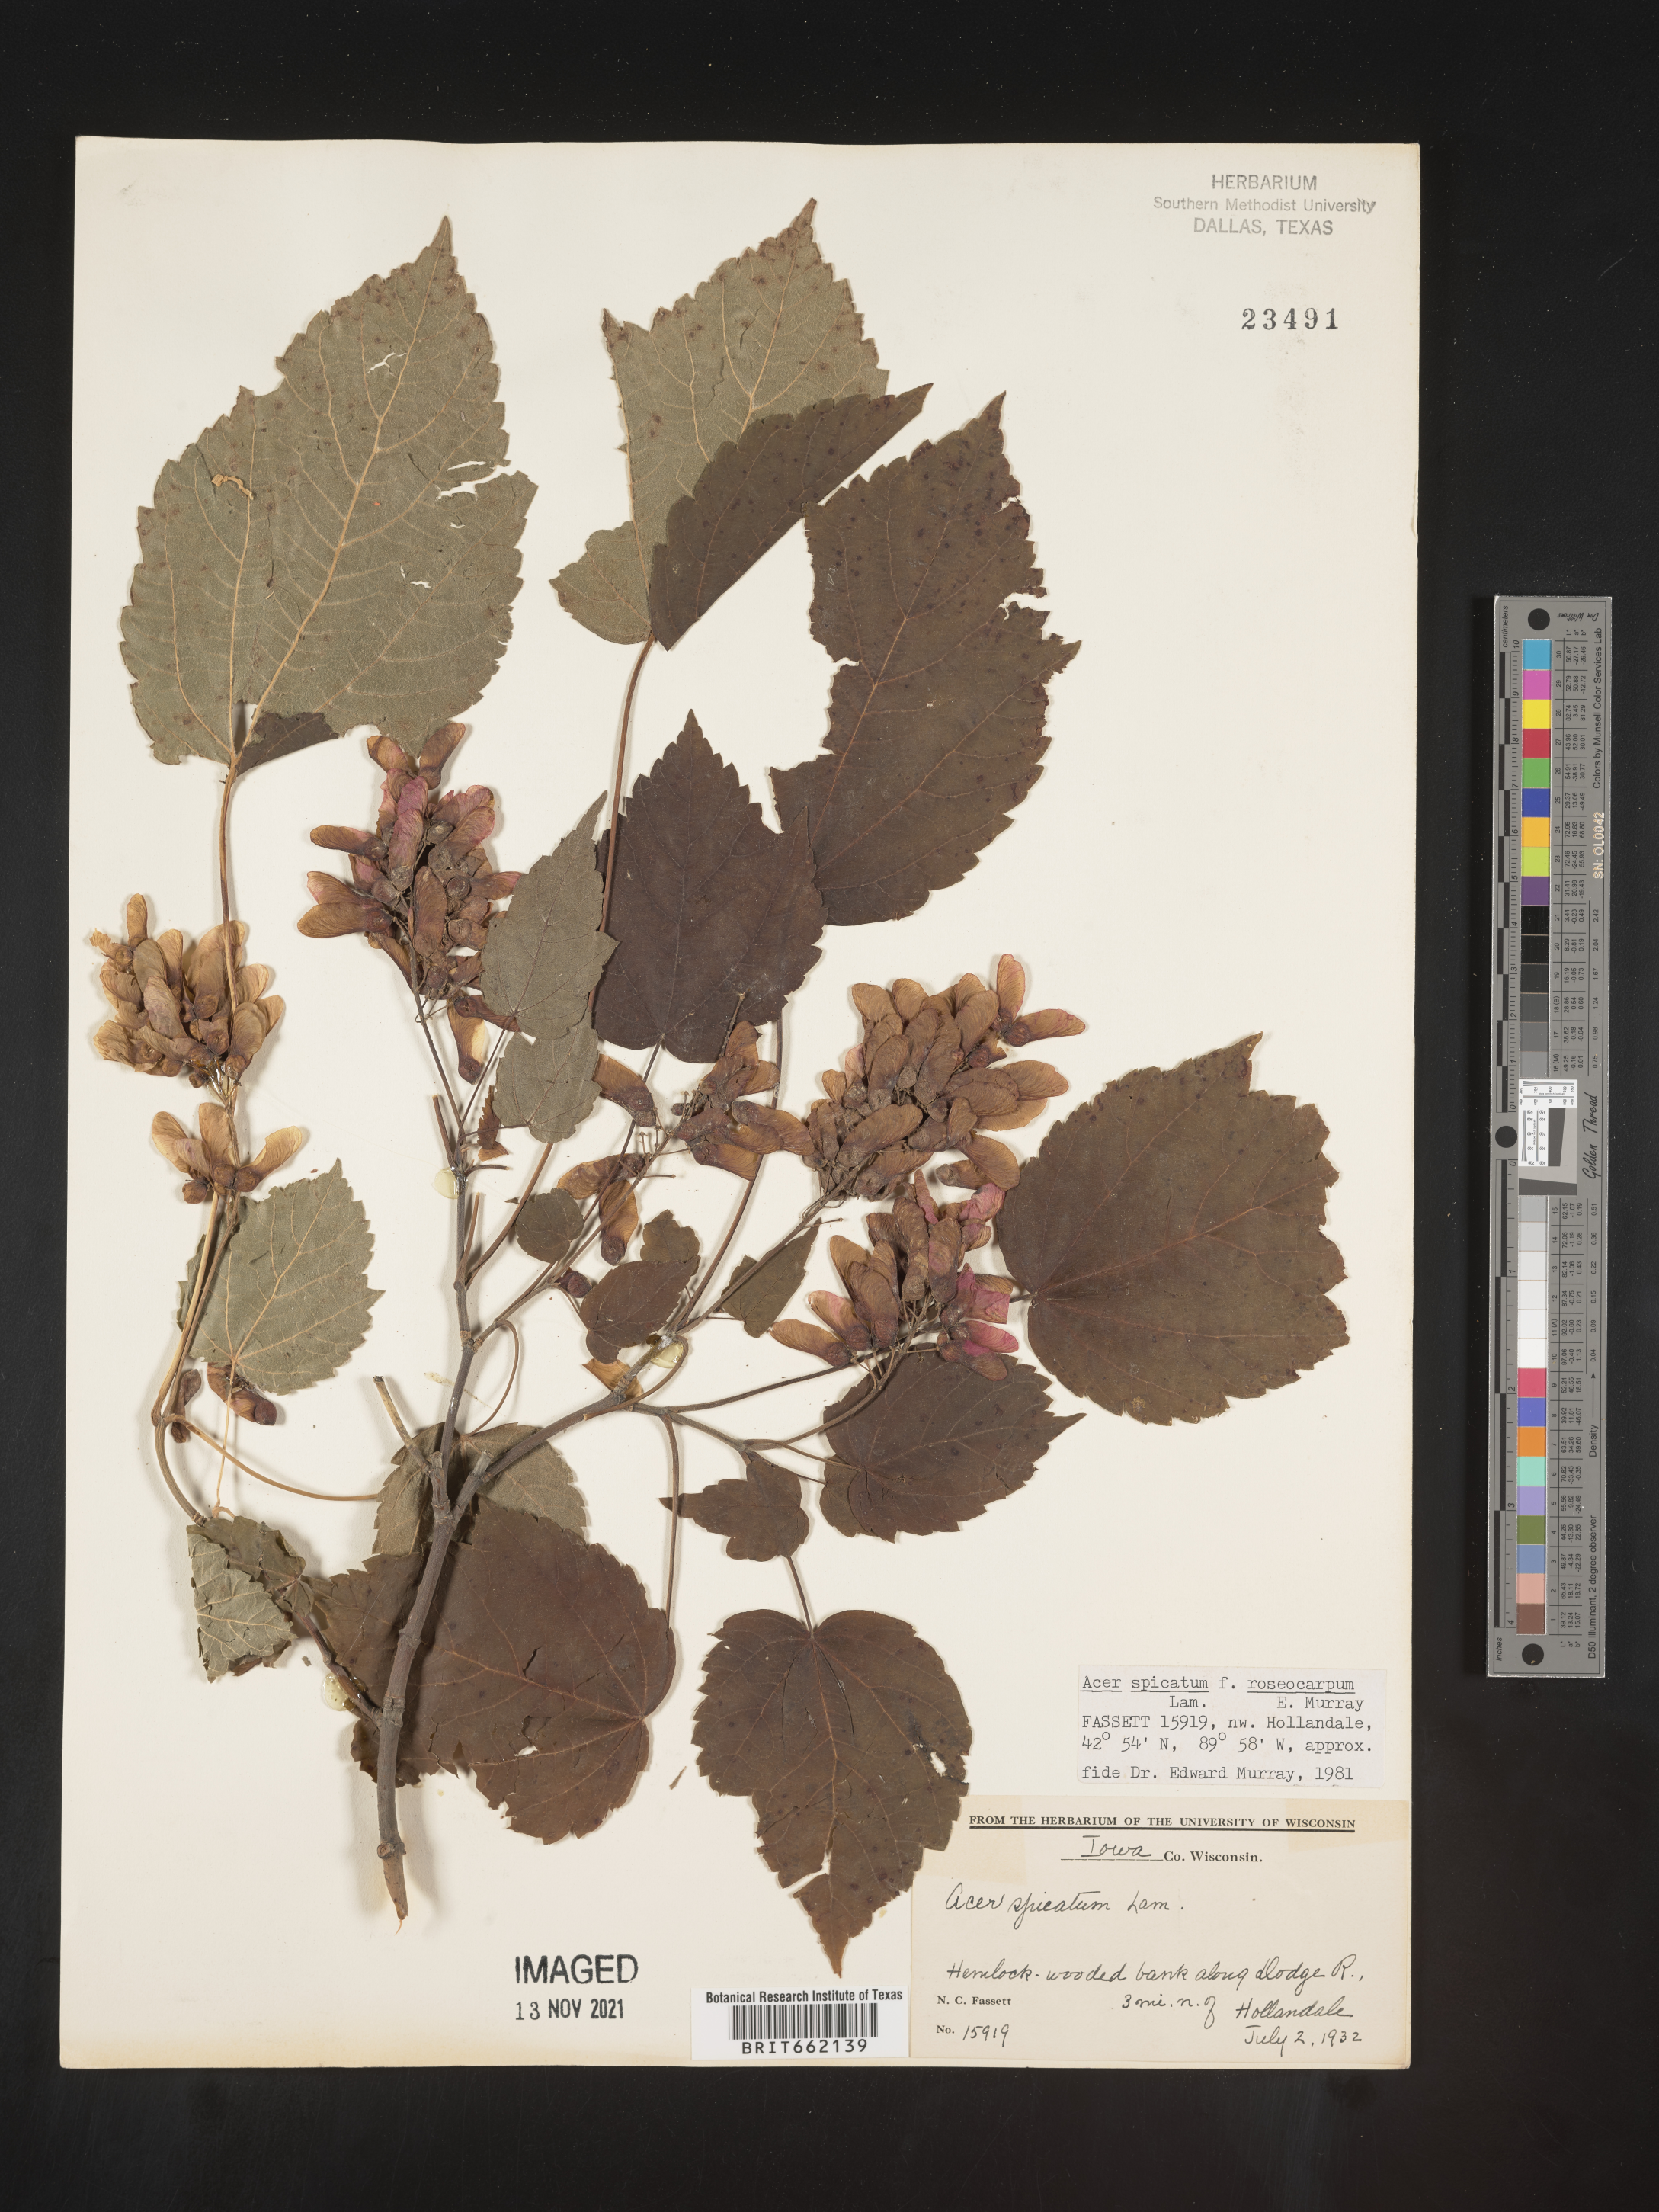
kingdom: Plantae
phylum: Tracheophyta
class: Magnoliopsida
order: Sapindales
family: Sapindaceae
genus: Acer
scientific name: Acer spicatum
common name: Mountain maple
